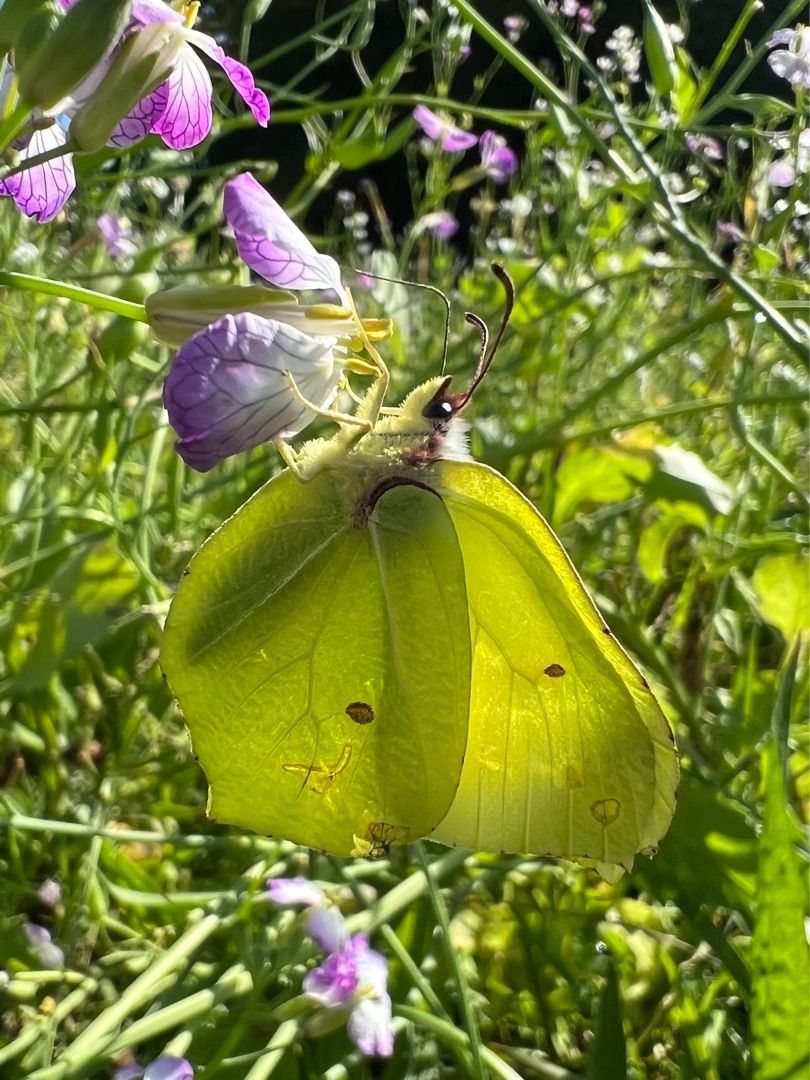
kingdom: Animalia
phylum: Arthropoda
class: Insecta
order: Lepidoptera
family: Pieridae
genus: Gonepteryx
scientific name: Gonepteryx rhamni
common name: Citronsommerfugl
